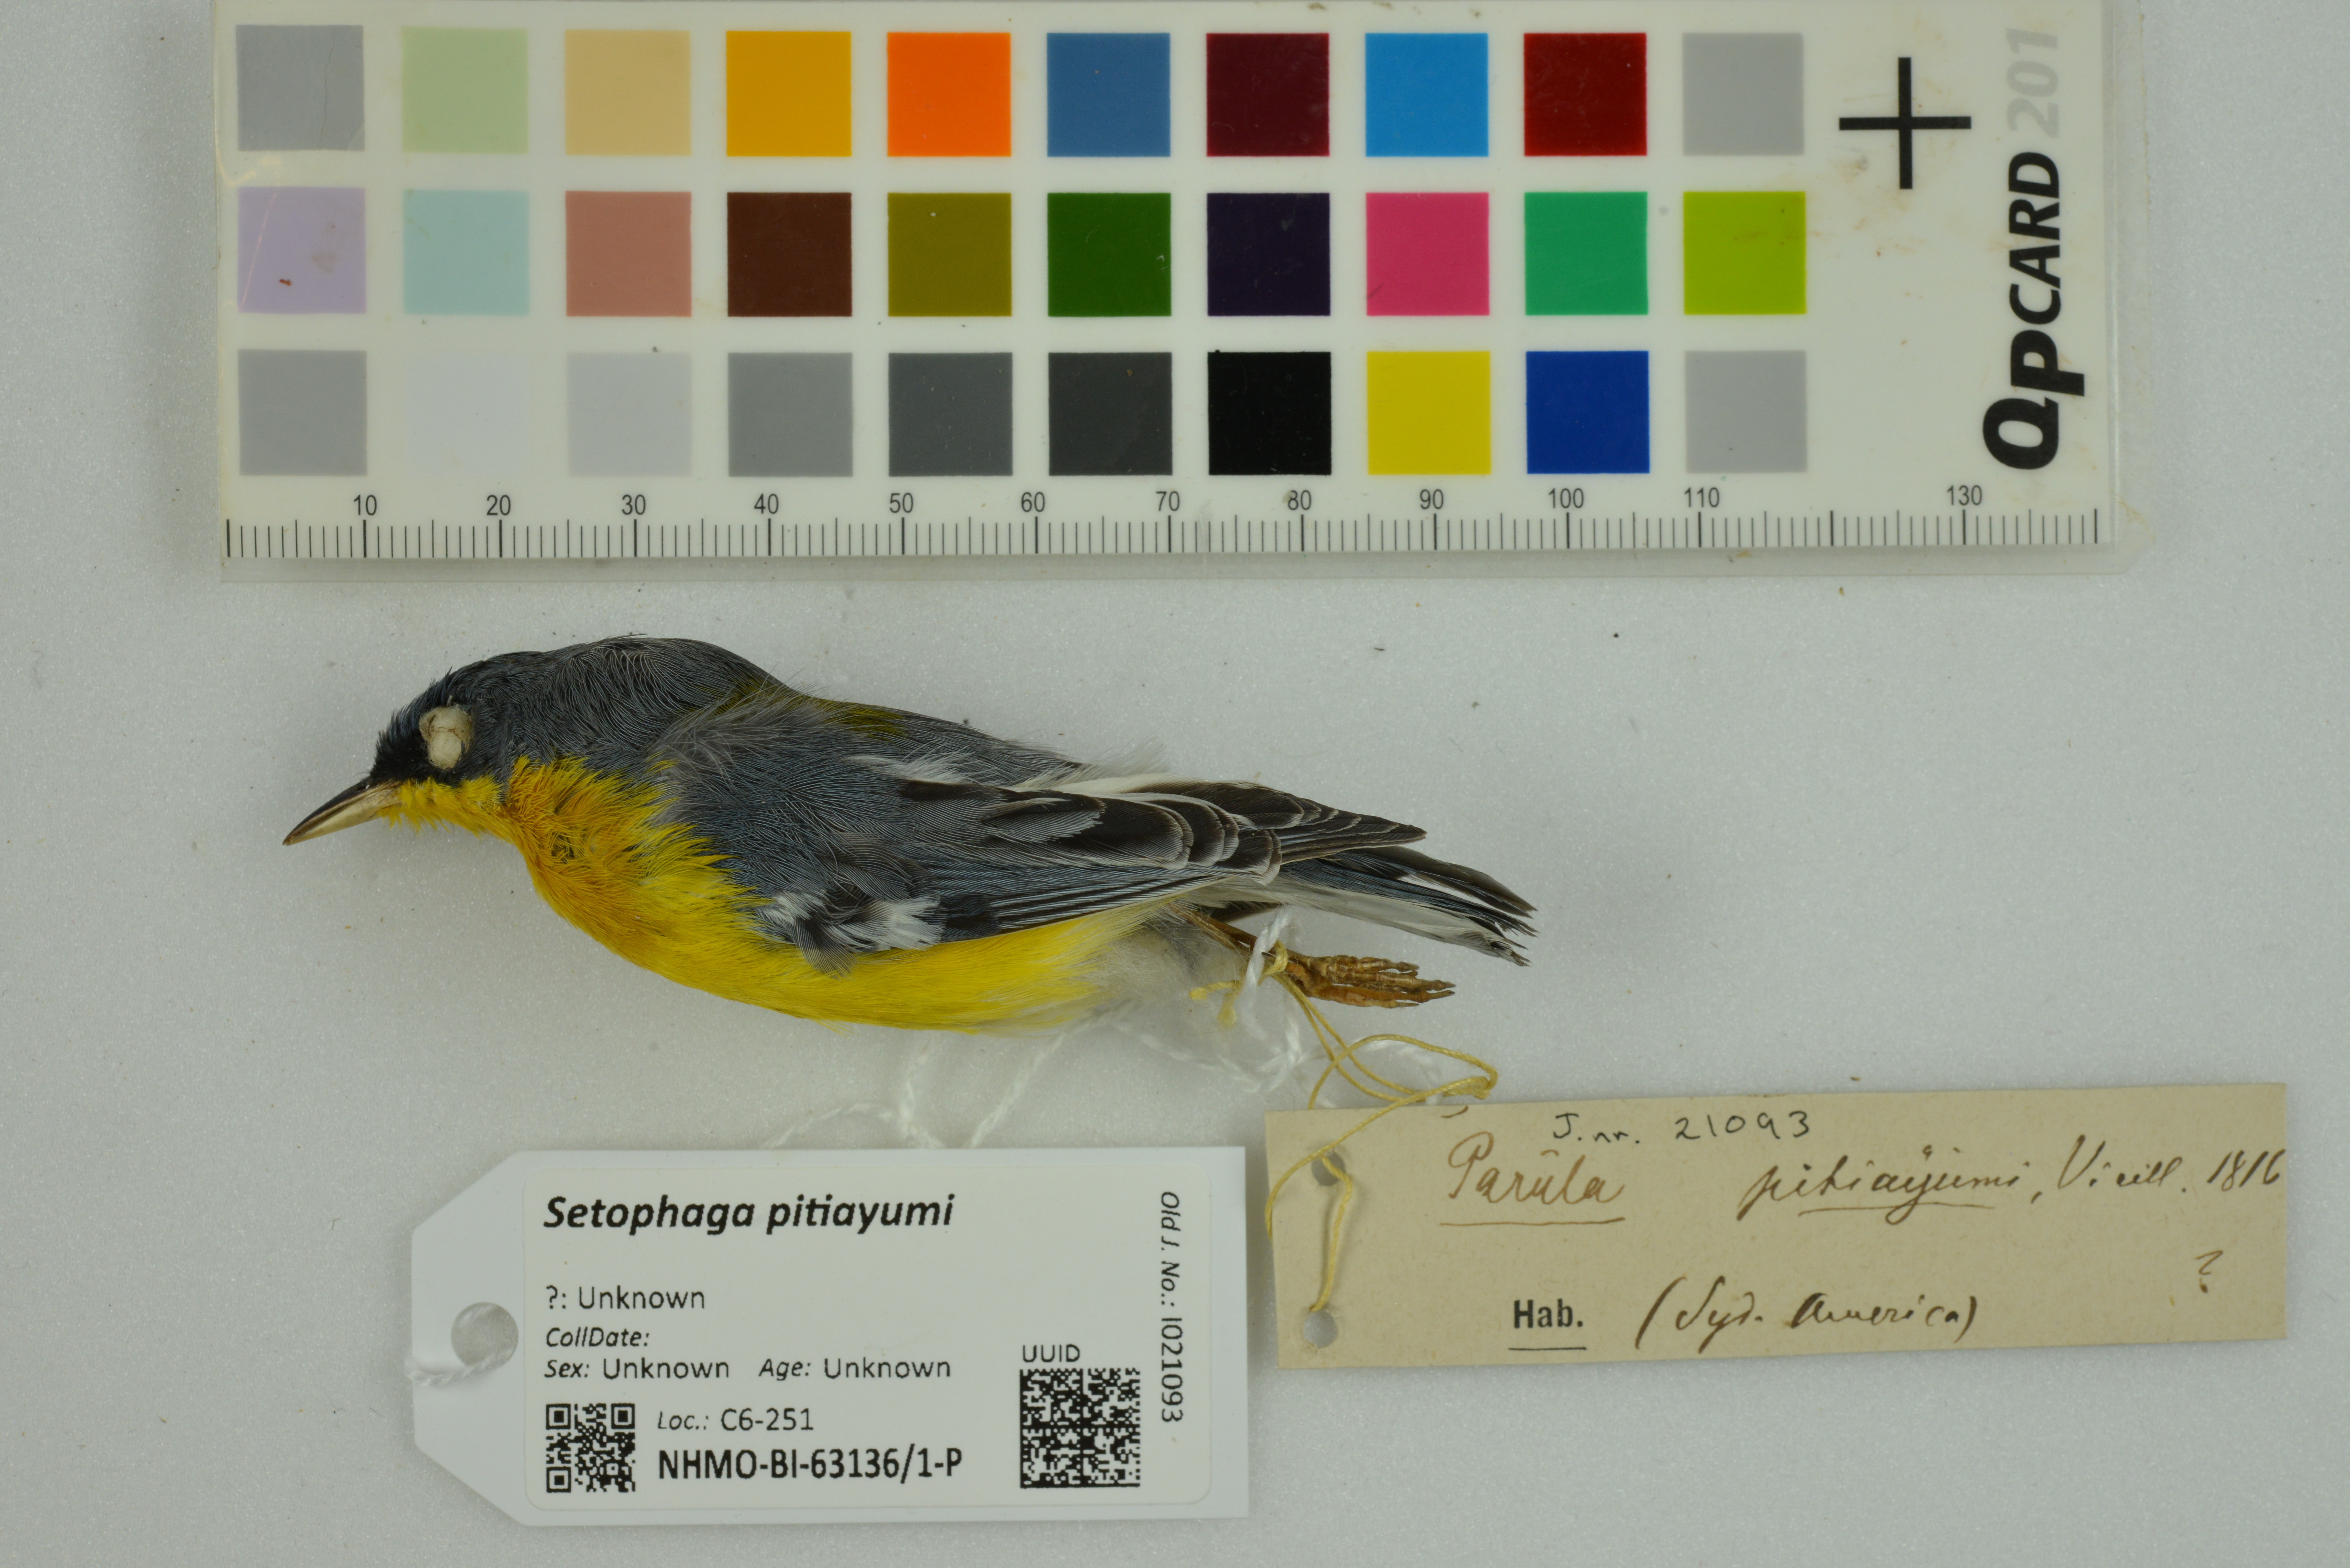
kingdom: Animalia
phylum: Chordata
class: Aves
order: Passeriformes
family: Parulidae
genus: Setophaga
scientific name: Setophaga pitiayumi
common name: Tropical parula
